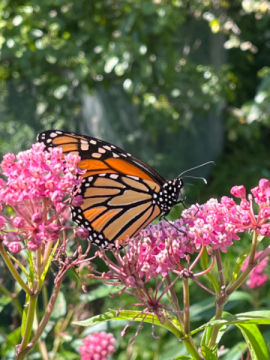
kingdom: Animalia
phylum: Arthropoda
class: Insecta
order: Lepidoptera
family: Nymphalidae
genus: Danaus
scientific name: Danaus plexippus
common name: Monarch
